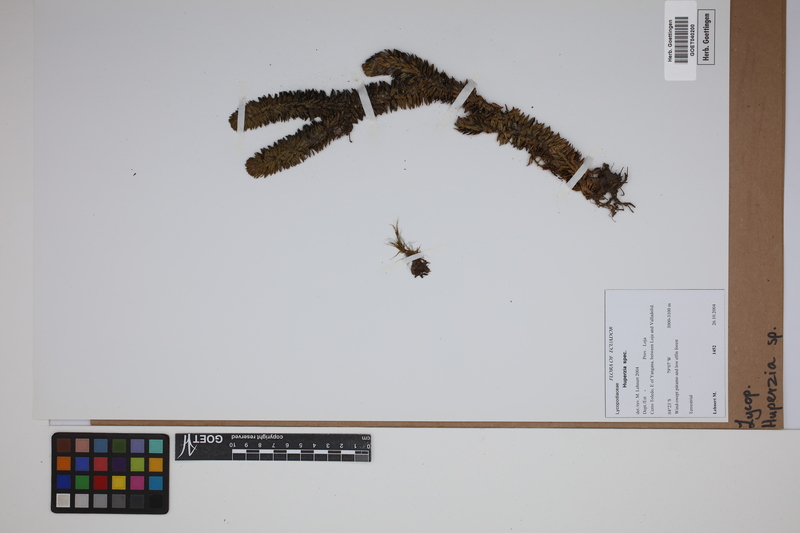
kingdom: Plantae
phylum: Tracheophyta
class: Lycopodiopsida
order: Lycopodiales
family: Lycopodiaceae
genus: Phlegmariurus
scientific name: Phlegmariurus
